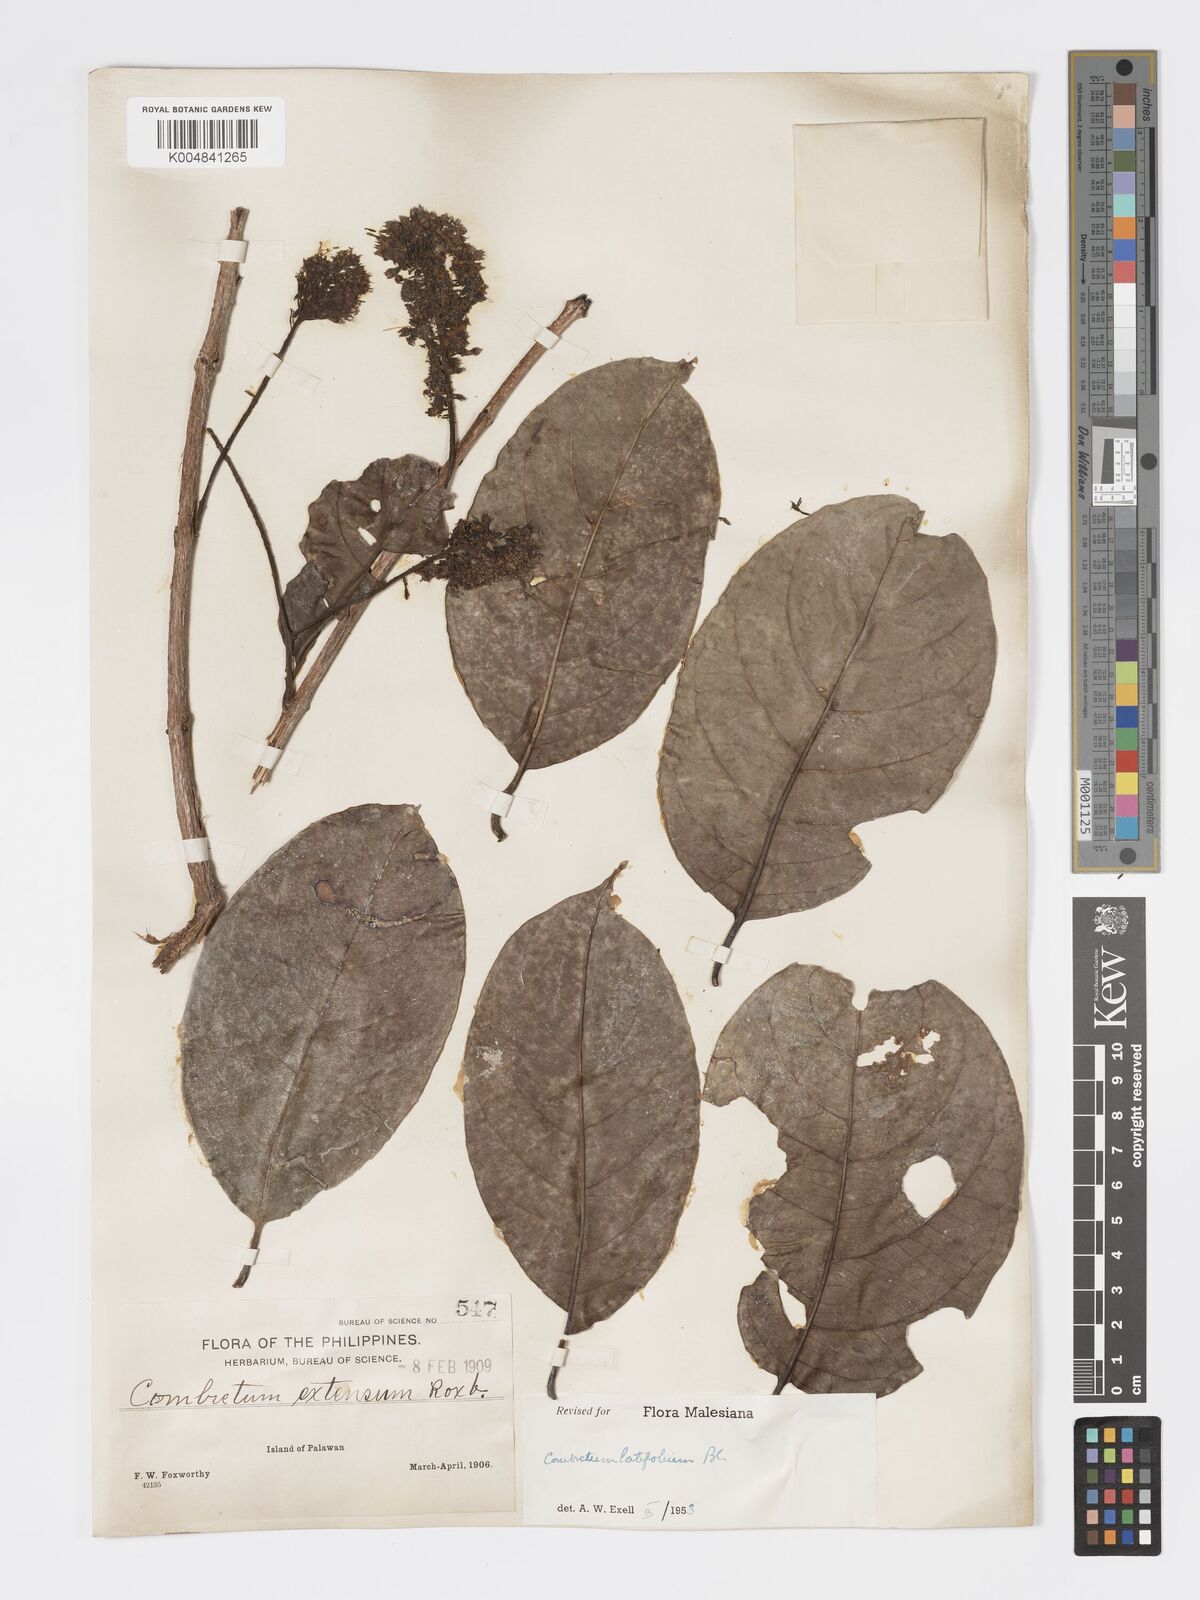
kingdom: Plantae
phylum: Tracheophyta
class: Magnoliopsida
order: Myrtales
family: Combretaceae
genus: Combretum
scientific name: Combretum
